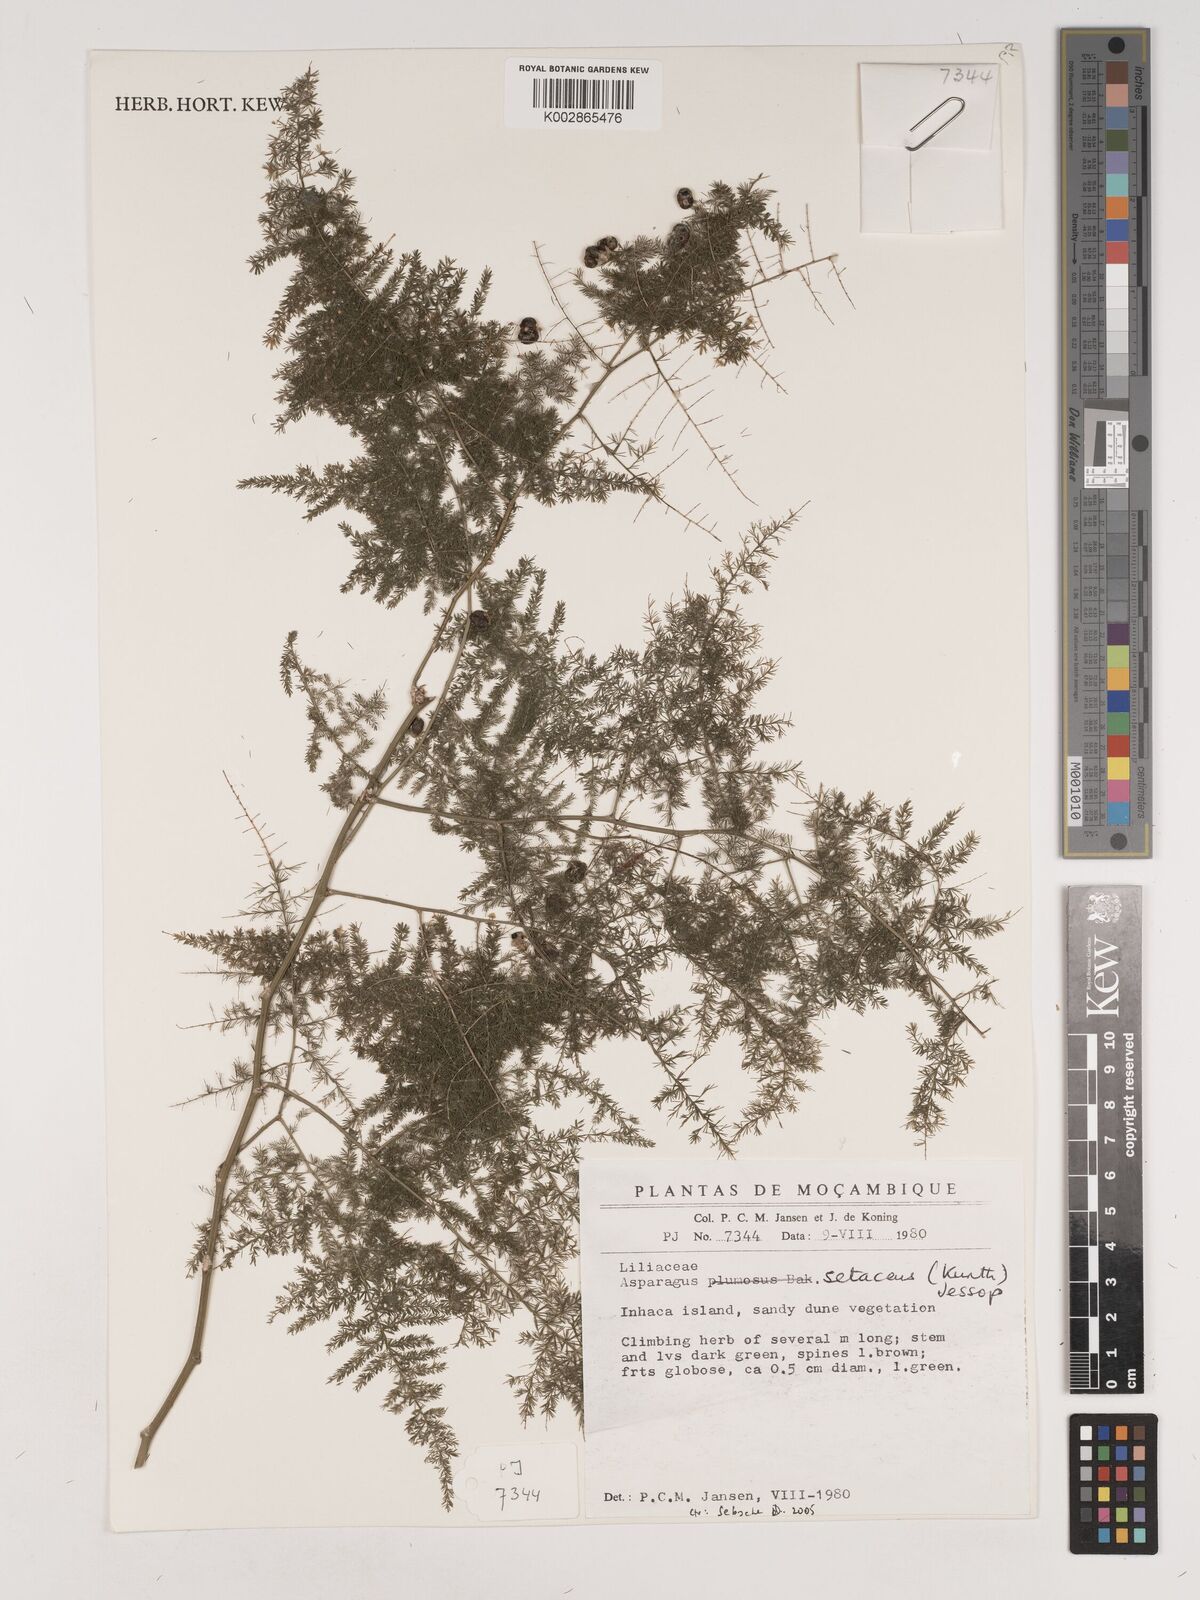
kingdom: Plantae
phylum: Tracheophyta
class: Liliopsida
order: Asparagales
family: Asparagaceae
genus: Asparagus
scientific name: Asparagus setaceus
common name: Common asparagus fern
